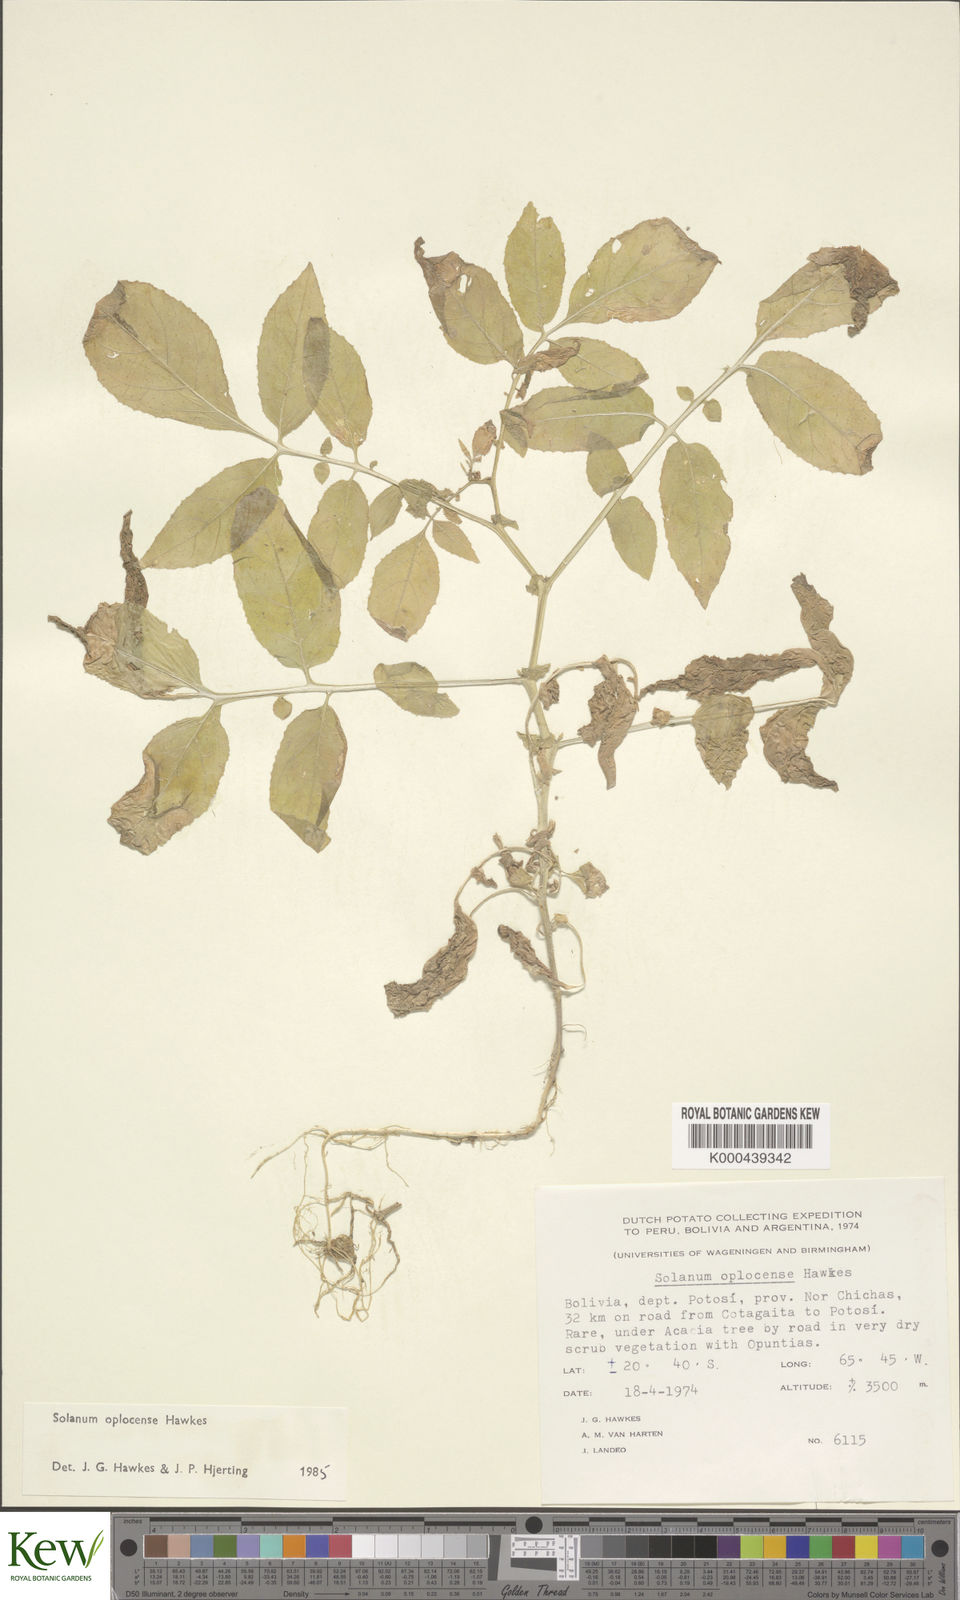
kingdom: Plantae
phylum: Tracheophyta
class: Magnoliopsida
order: Solanales
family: Solanaceae
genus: Solanum
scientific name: Solanum brevicaule
